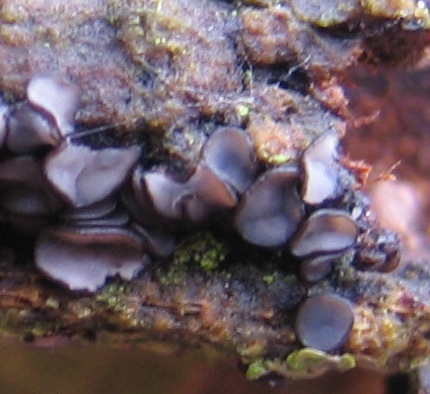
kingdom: Fungi
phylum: Ascomycota
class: Leotiomycetes
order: Helotiales
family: Mollisiaceae
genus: Mollisia
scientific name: Mollisia
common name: gråskive
